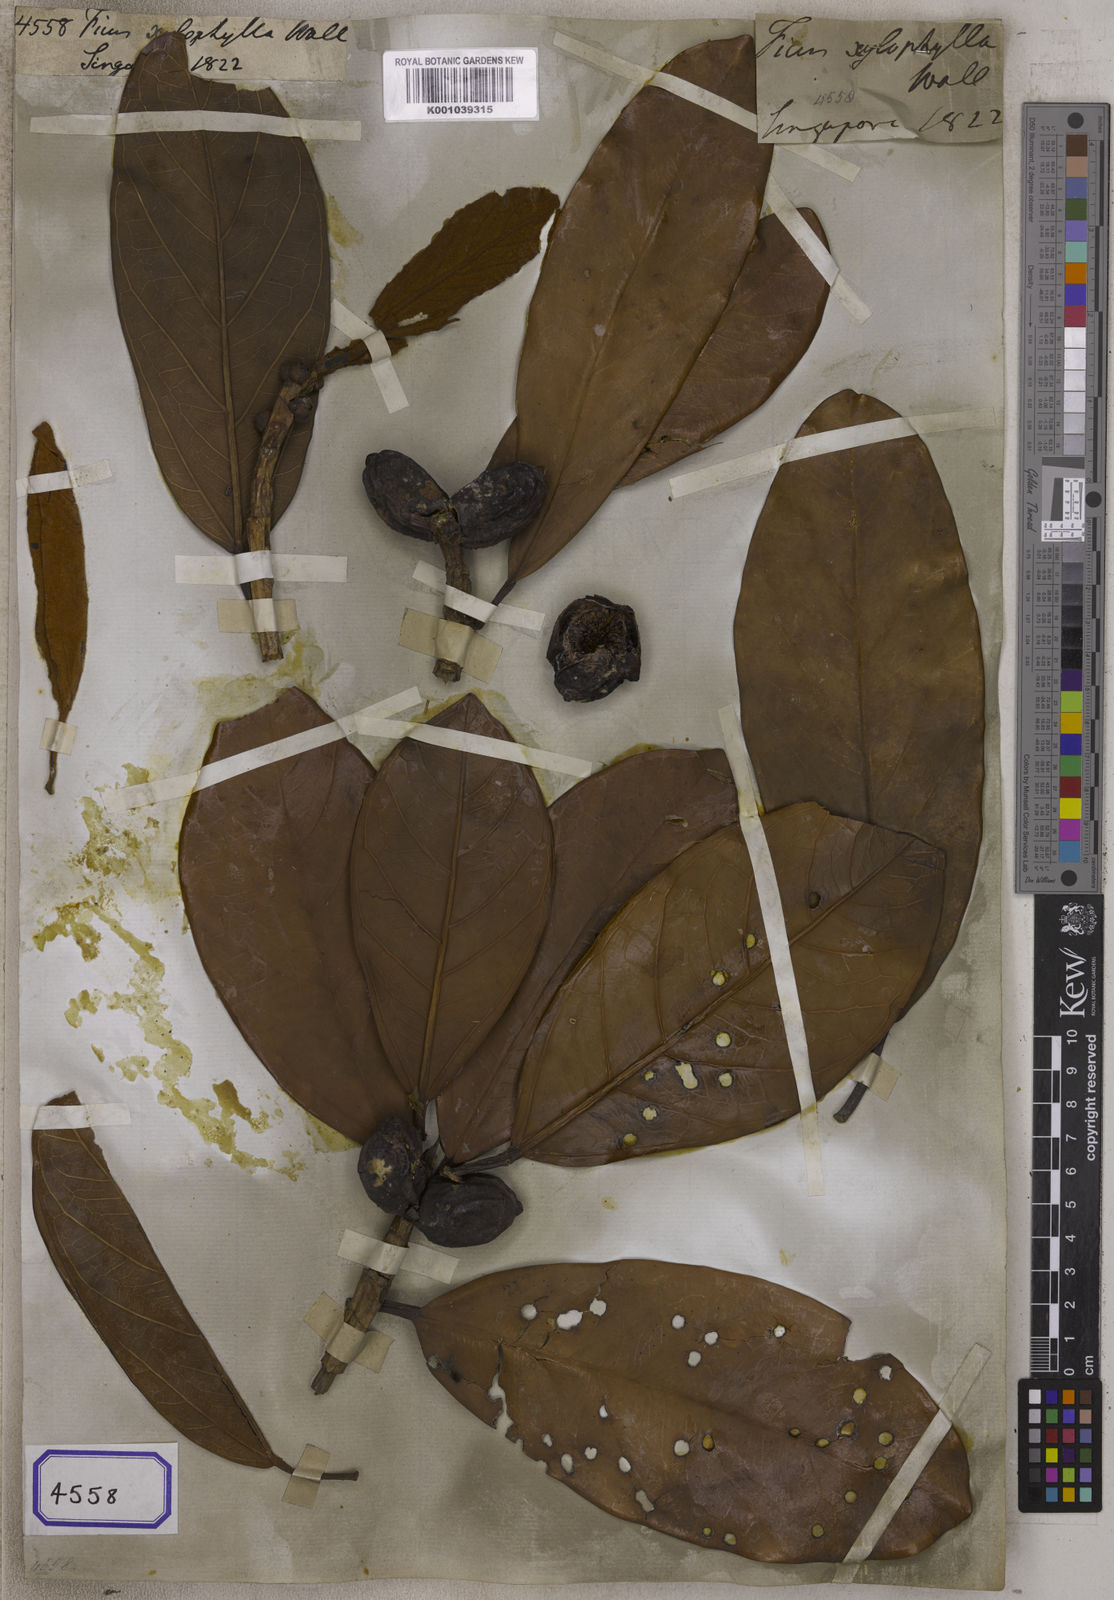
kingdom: Plantae
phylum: Tracheophyta
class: Magnoliopsida
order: Rosales
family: Moraceae
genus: Ficus
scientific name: Ficus
